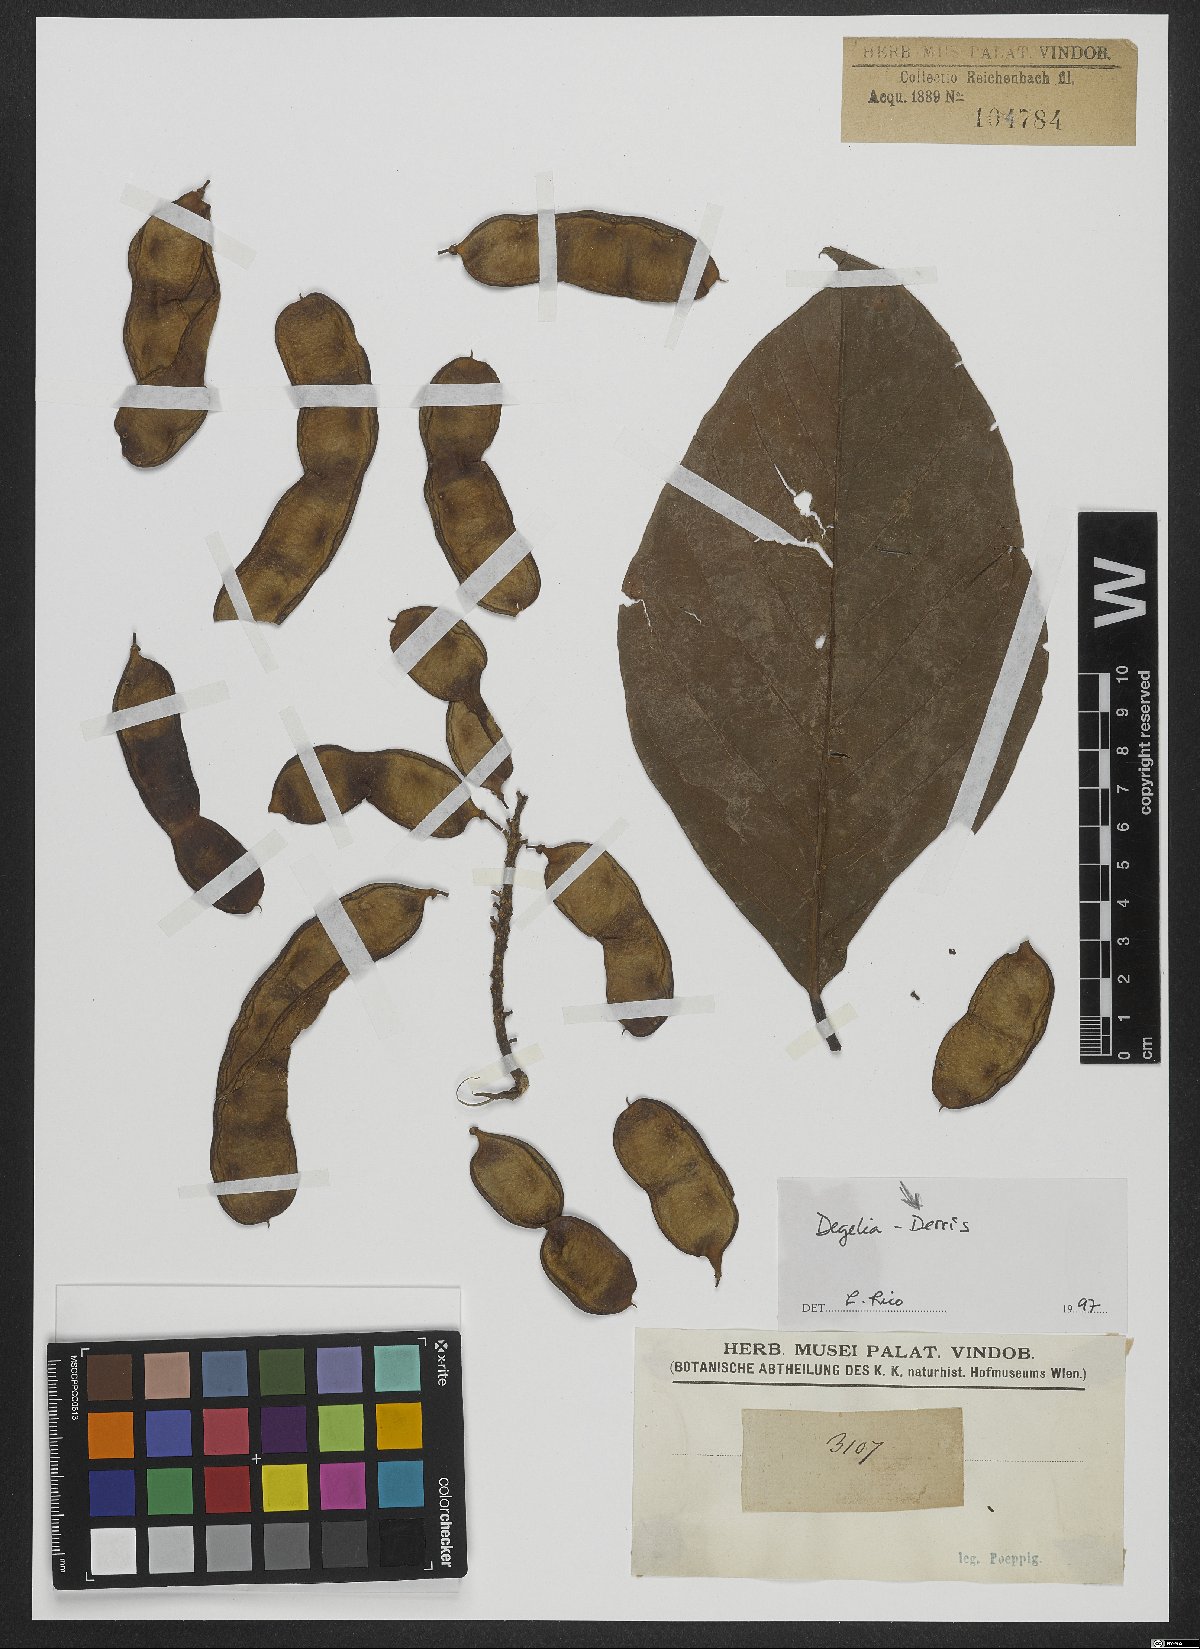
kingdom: Plantae
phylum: Tracheophyta
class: Magnoliopsida
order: Fabales
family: Fabaceae
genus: Derris
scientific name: Derris
